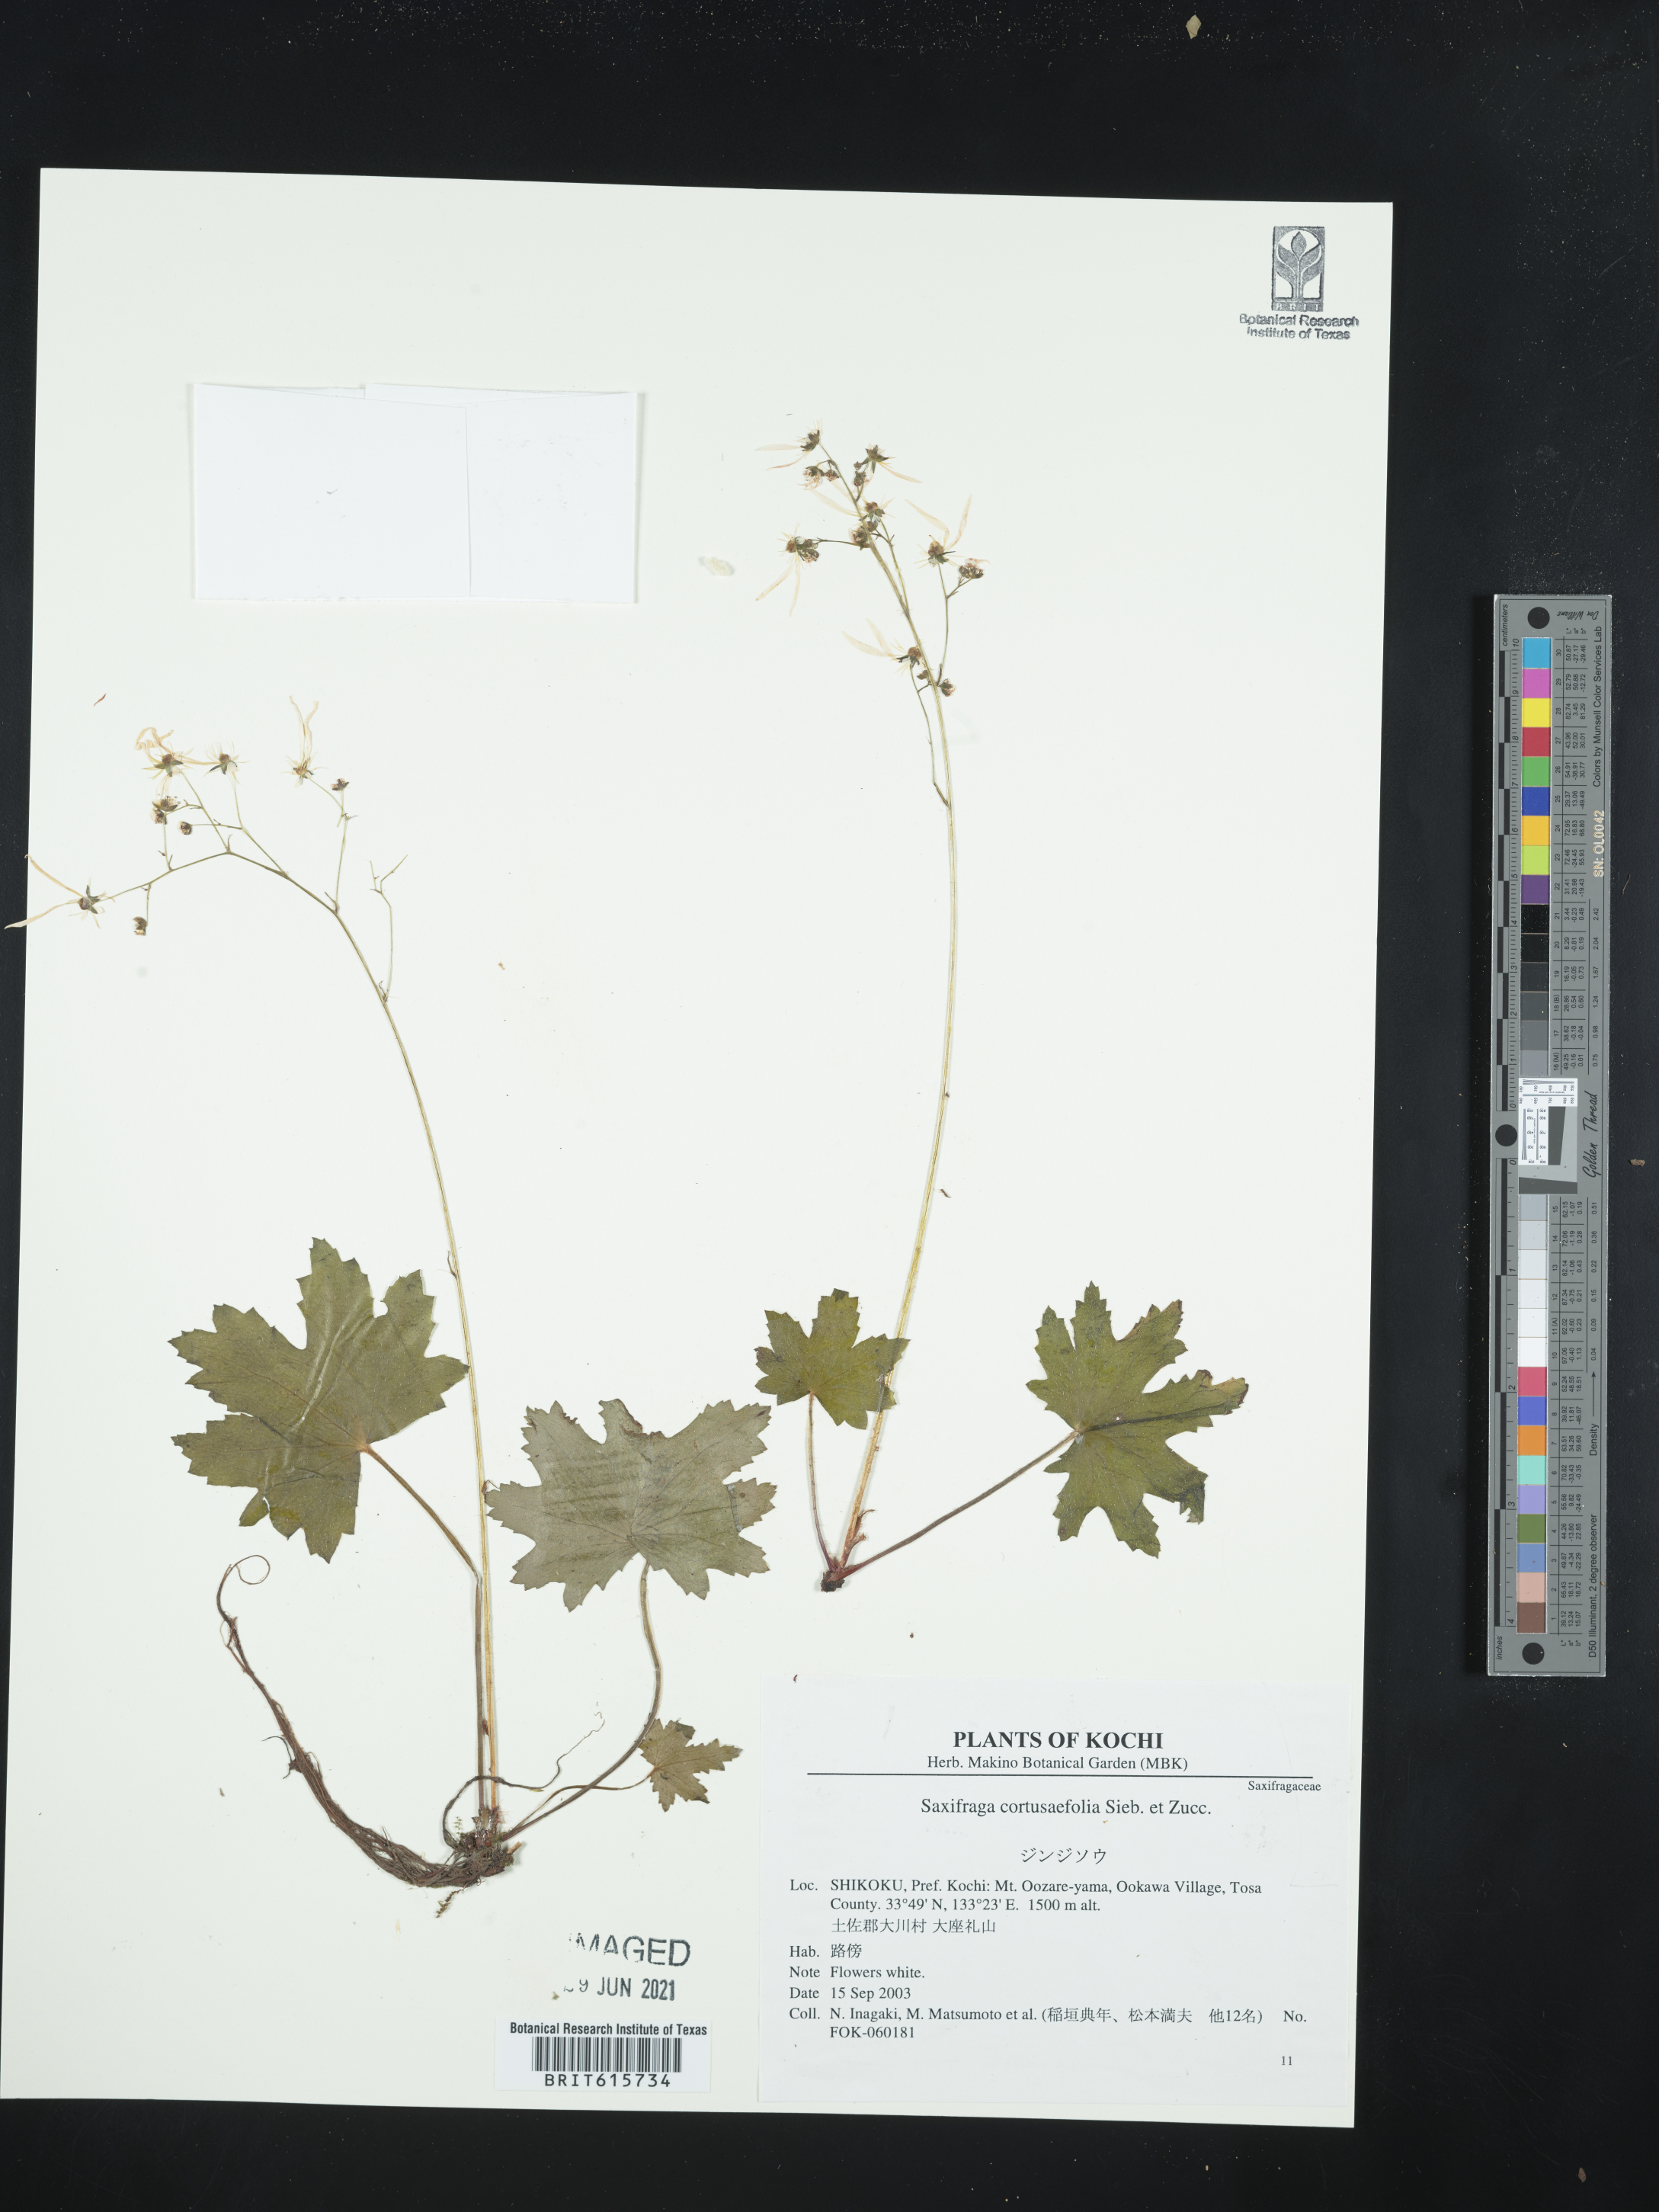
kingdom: Plantae
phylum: Tracheophyta
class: Magnoliopsida
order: Saxifragales
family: Saxifragaceae
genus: Saxifraga
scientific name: Saxifraga cortusifolia
